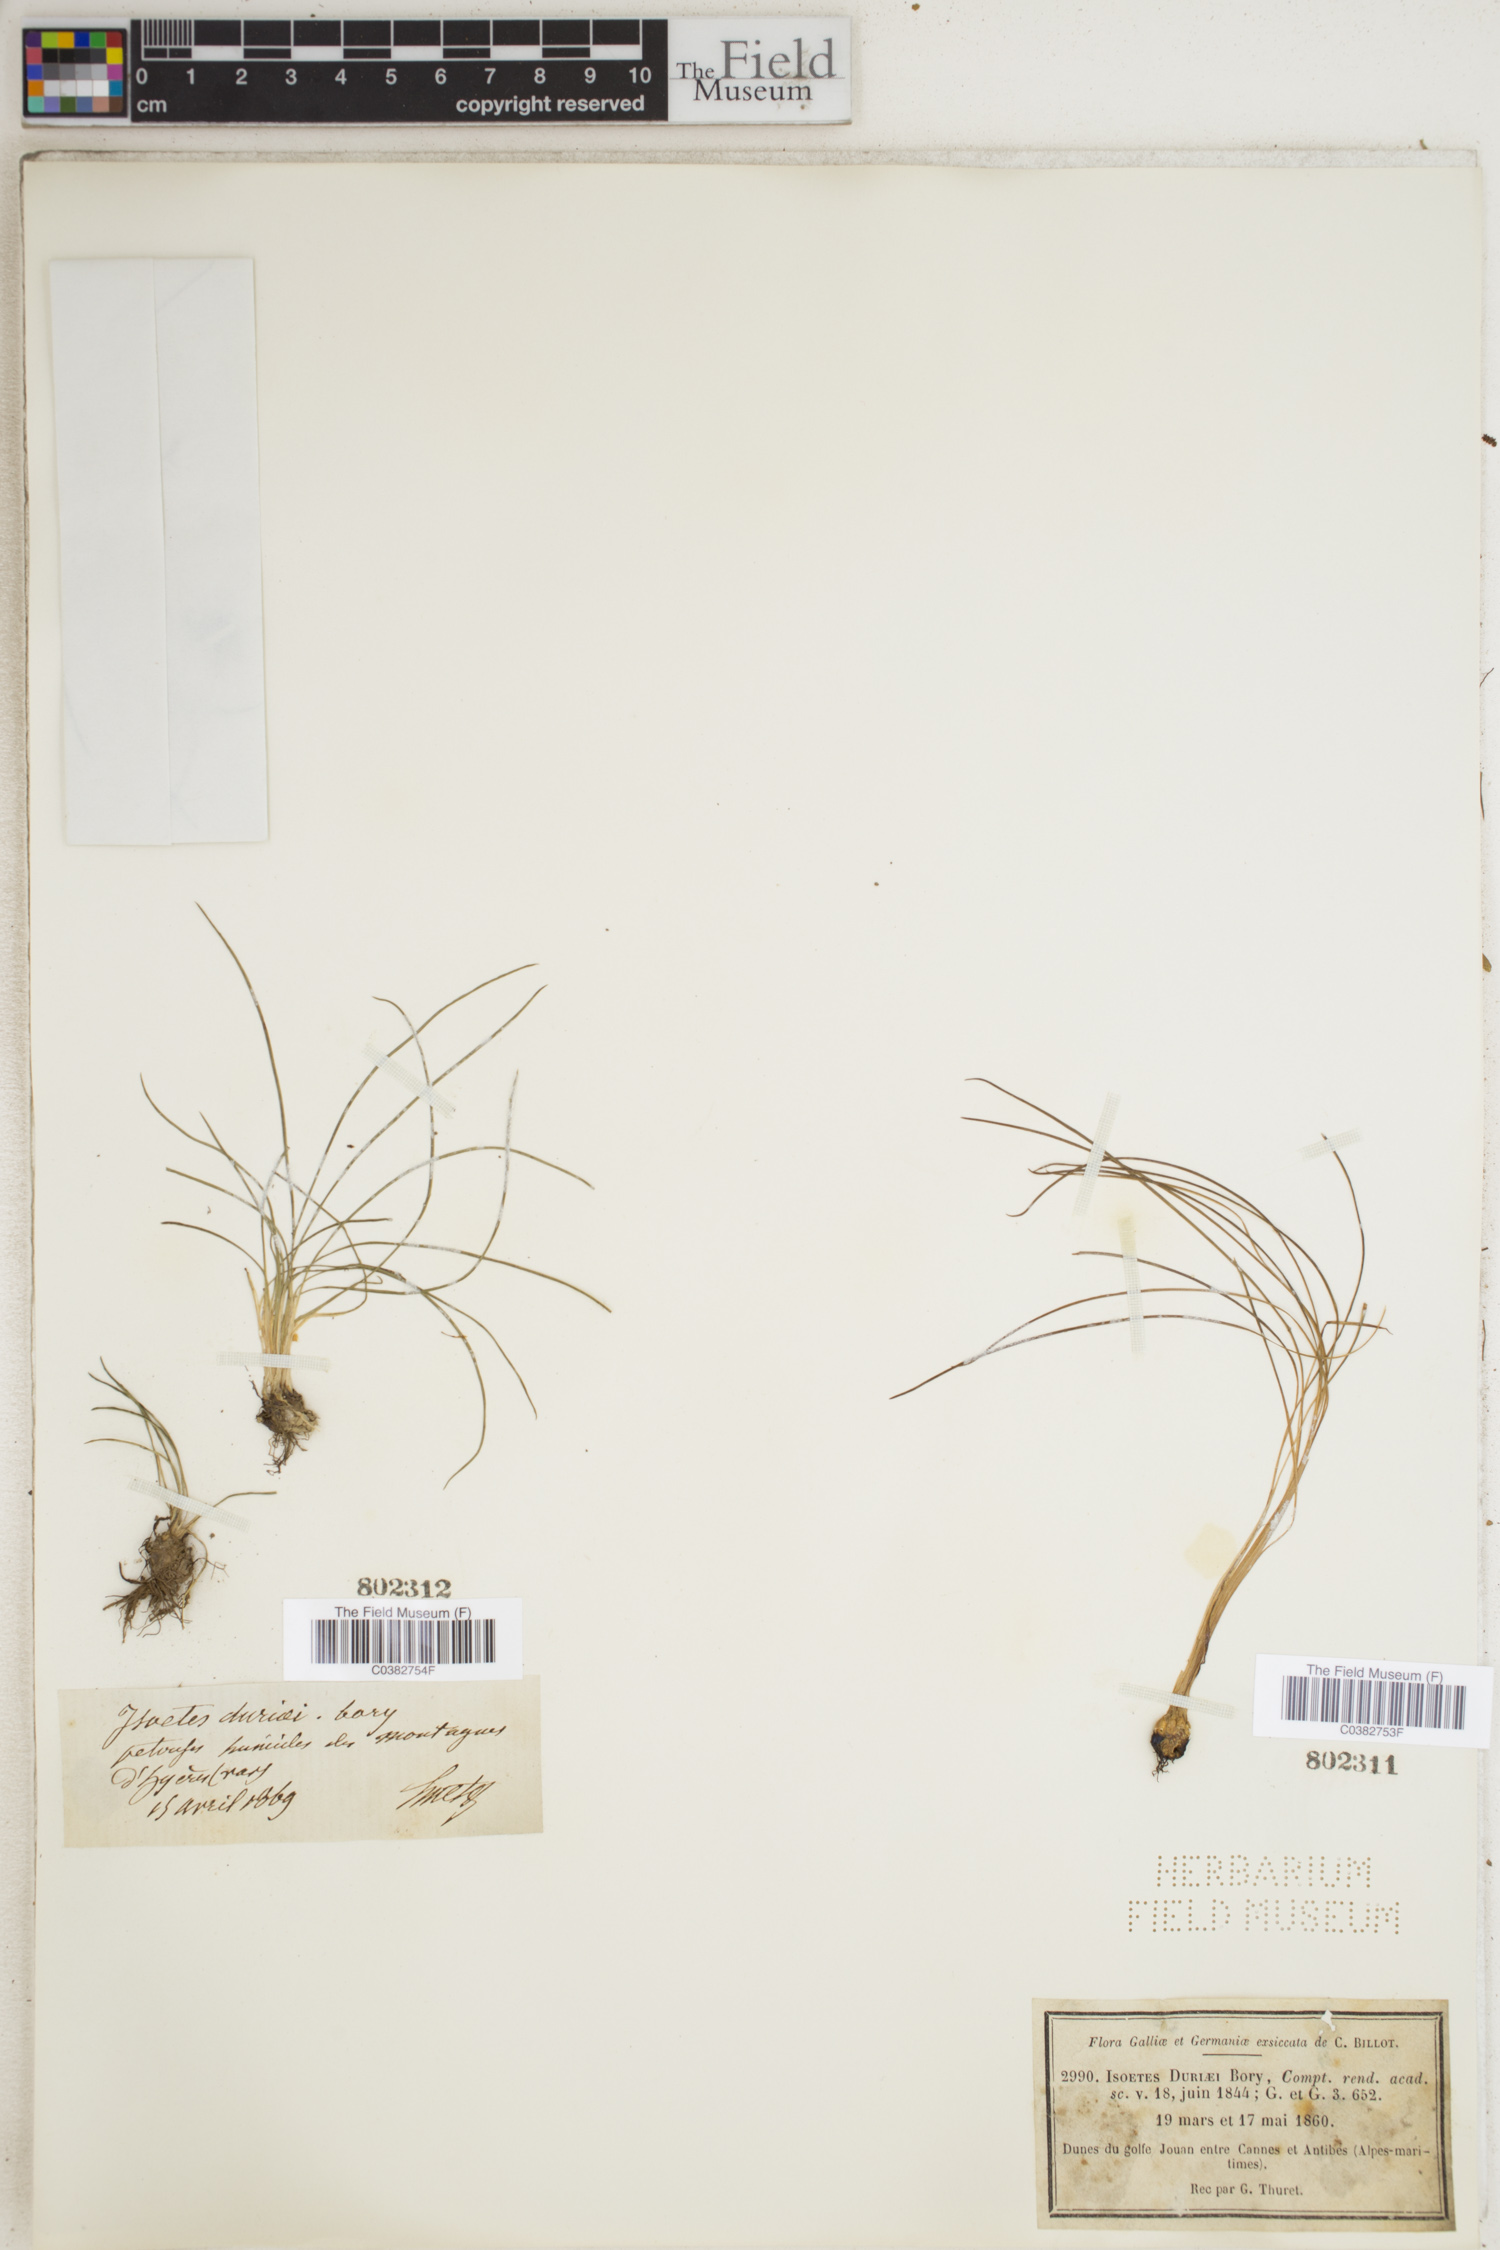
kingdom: Plantae
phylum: Tracheophyta
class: Lycopodiopsida
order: Isoetales
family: Isoetaceae
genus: Isoetes
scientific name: Isoetes duriei
